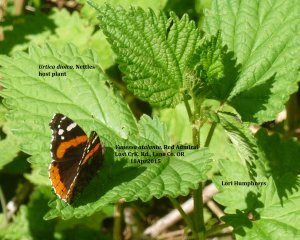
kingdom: Animalia
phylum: Arthropoda
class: Insecta
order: Lepidoptera
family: Nymphalidae
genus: Vanessa
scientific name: Vanessa atalanta
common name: Red Admiral
